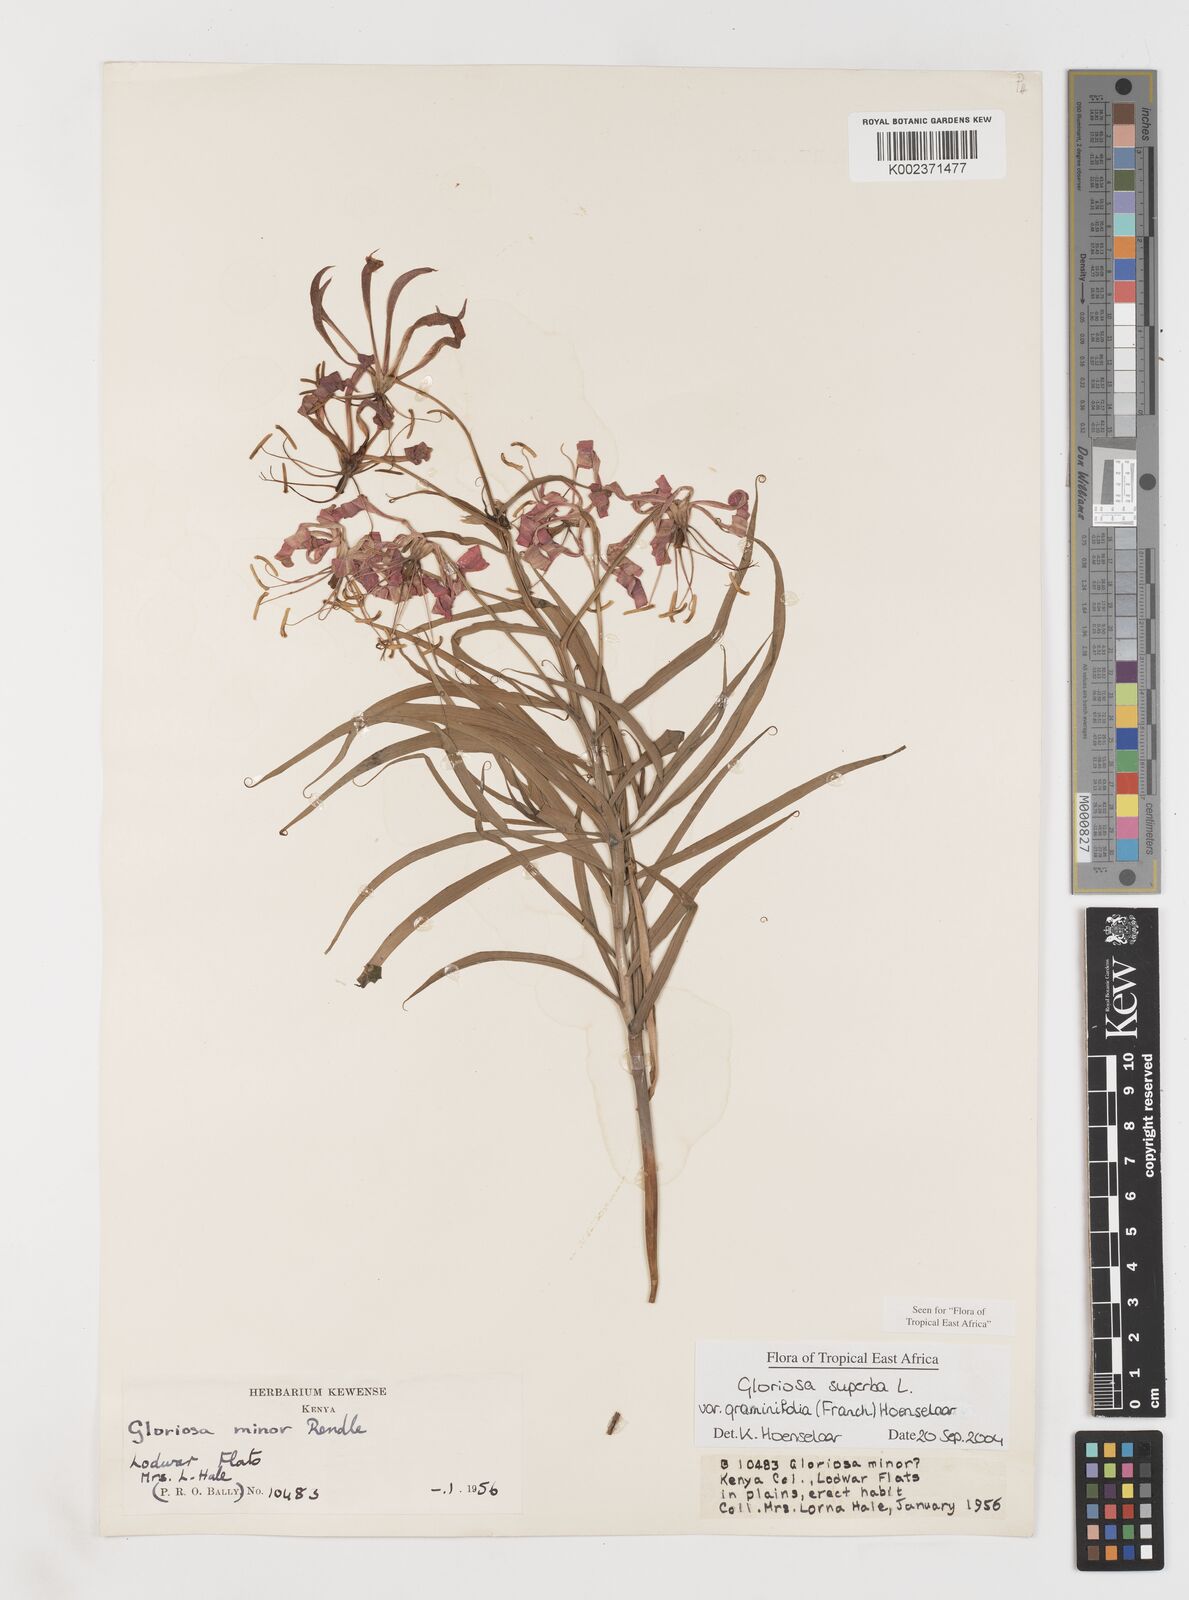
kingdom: Plantae
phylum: Tracheophyta
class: Liliopsida
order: Liliales
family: Colchicaceae
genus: Gloriosa
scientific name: Gloriosa baudii
